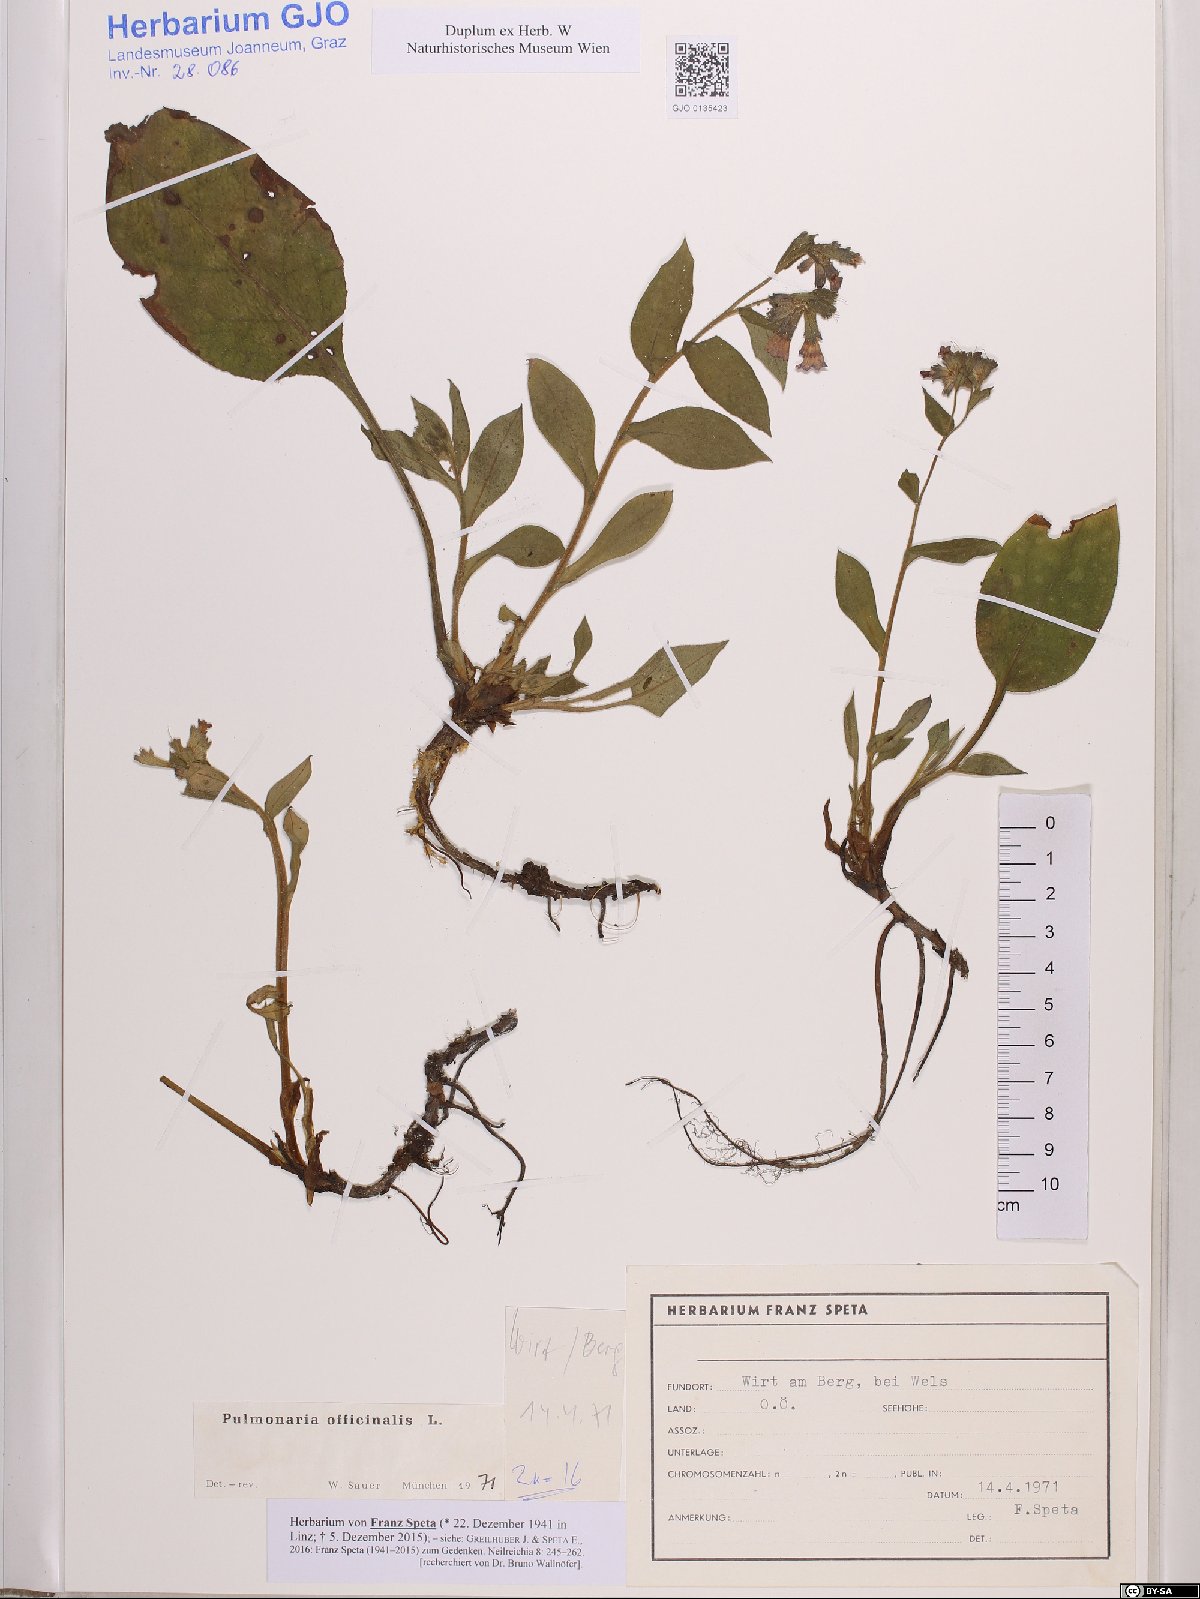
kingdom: Plantae
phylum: Tracheophyta
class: Magnoliopsida
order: Boraginales
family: Boraginaceae
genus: Pulmonaria
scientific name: Pulmonaria officinalis
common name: Lungwort
